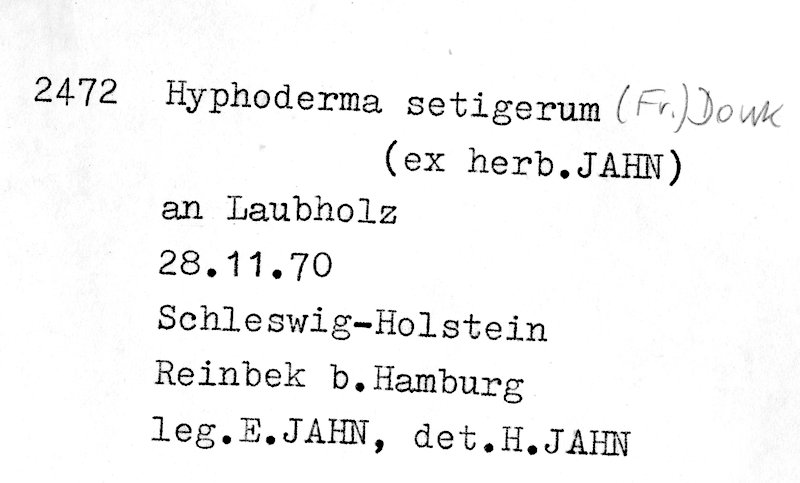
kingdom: Fungi
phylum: Basidiomycota
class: Agaricomycetes
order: Polyporales
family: Hyphodermataceae
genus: Hyphoderma
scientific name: Hyphoderma setigerum
